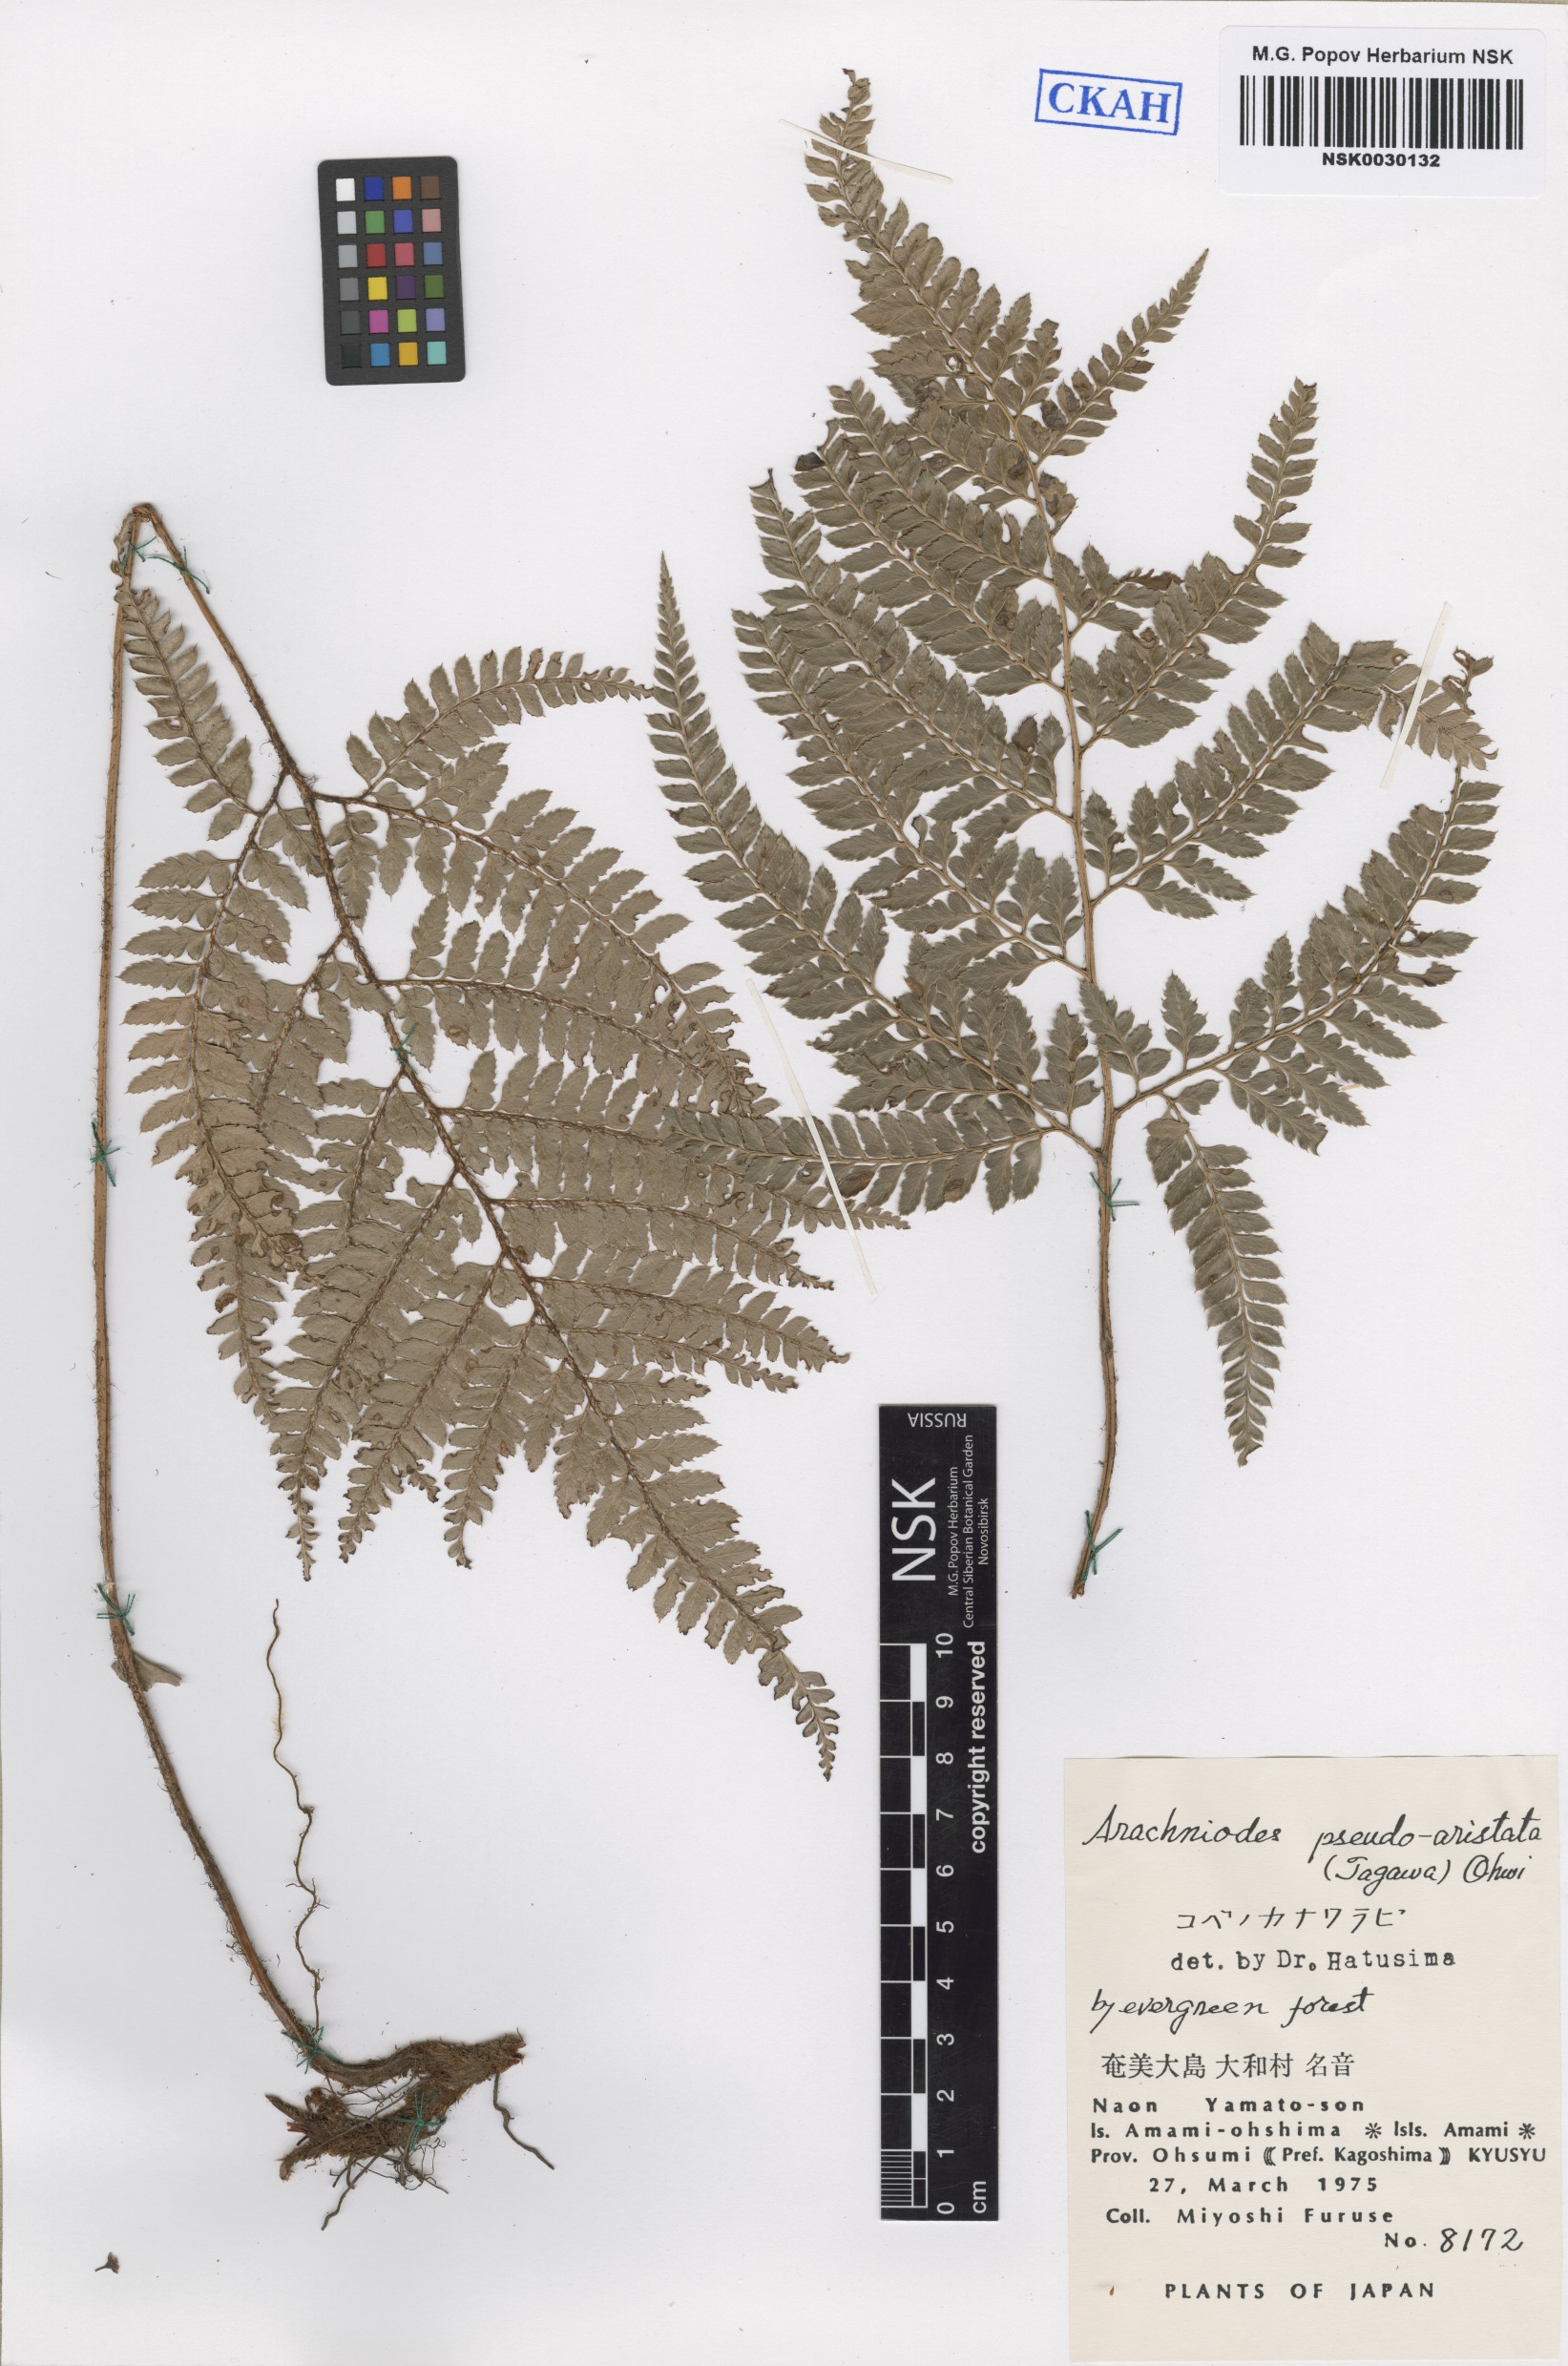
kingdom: Plantae
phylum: Tracheophyta
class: Polypodiopsida
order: Polypodiales
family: Dryopteridaceae
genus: Arachniodes
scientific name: Arachniodes pseudoaristata
